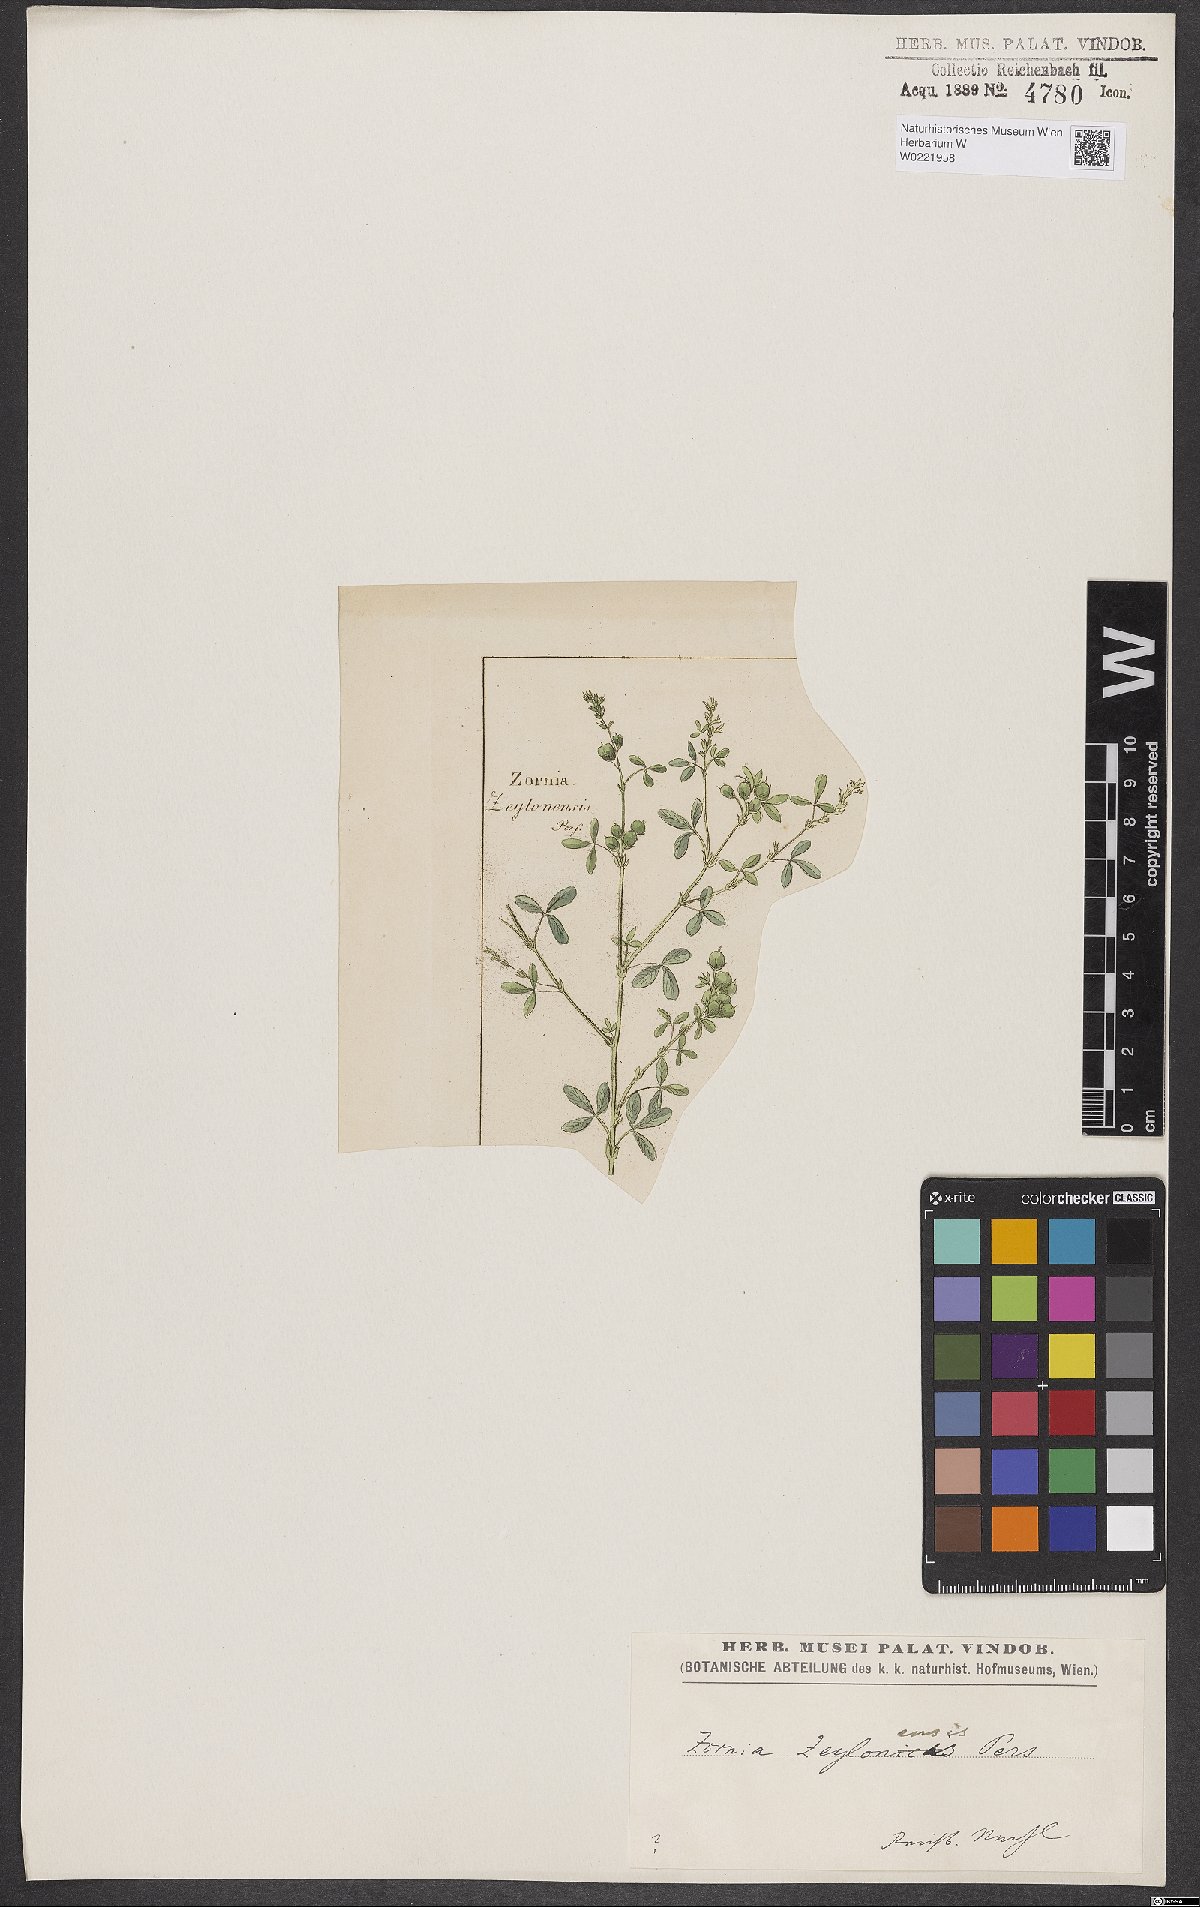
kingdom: Plantae
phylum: Tracheophyta
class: Magnoliopsida
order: Fabales
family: Fabaceae
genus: Zornia
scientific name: Zornia diphylla
